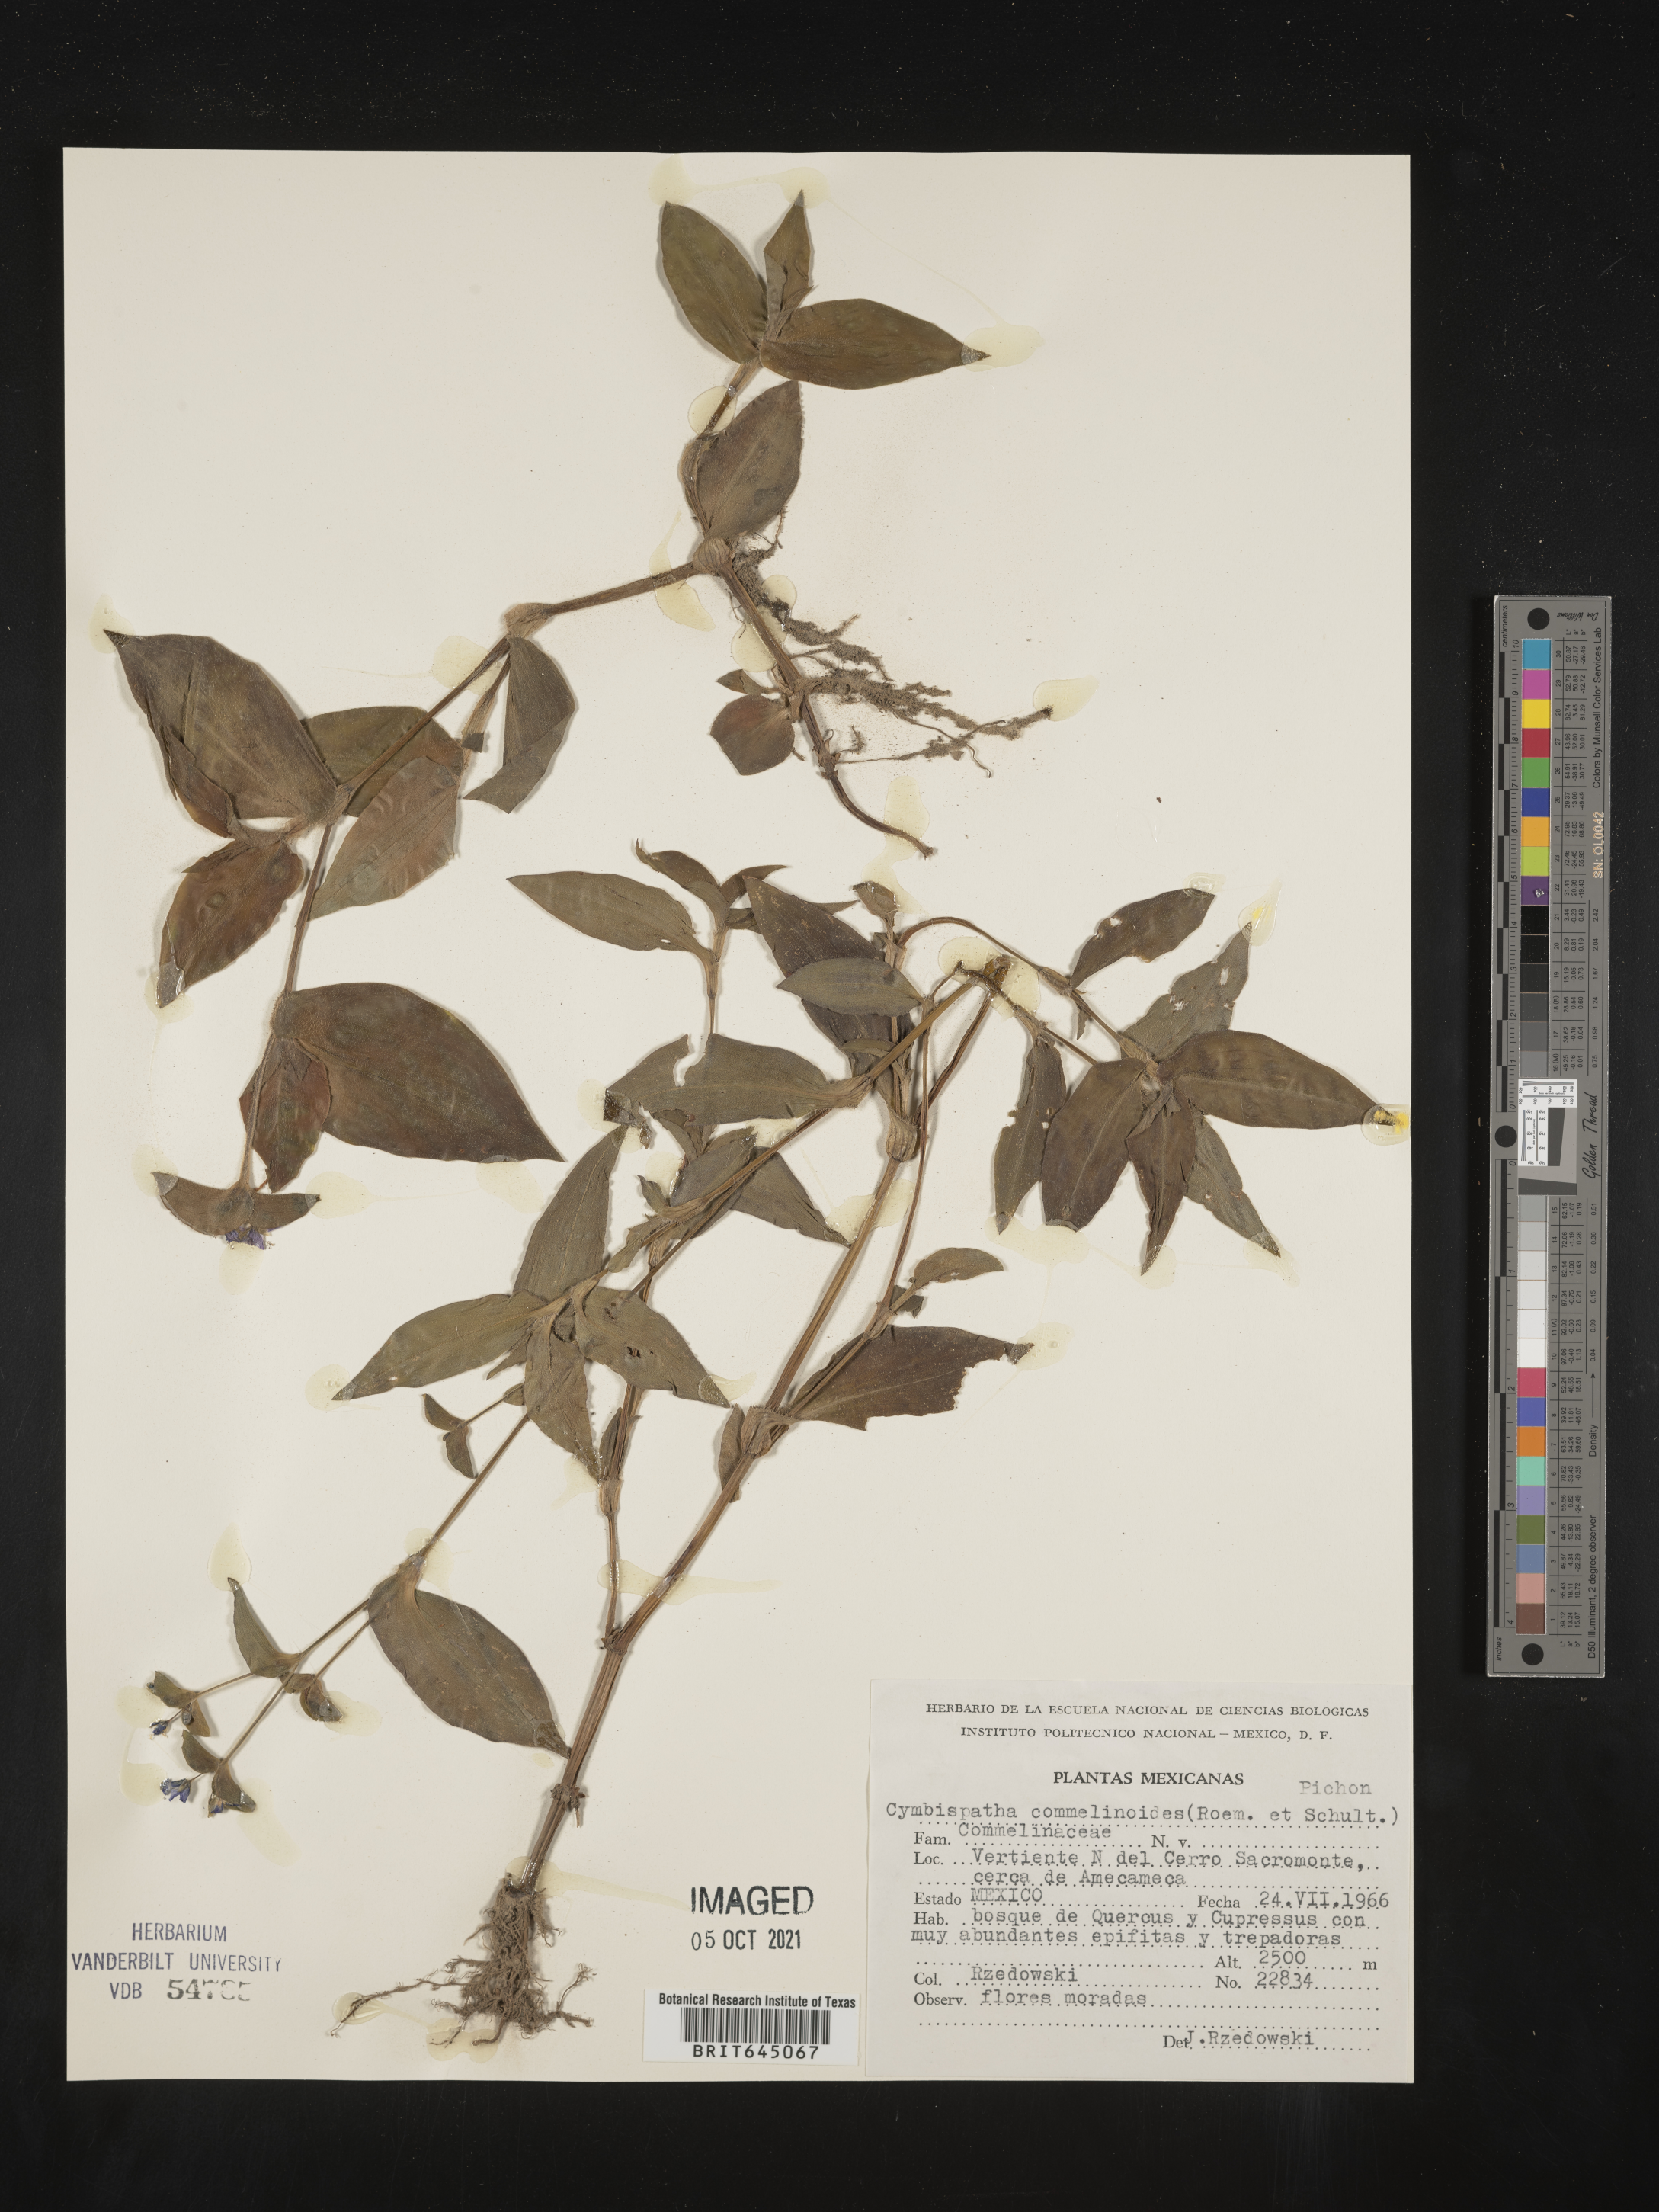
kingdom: Plantae
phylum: Tracheophyta
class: Liliopsida
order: Commelinales
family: Commelinaceae
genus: Tradescantia
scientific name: Tradescantia commelinoides
